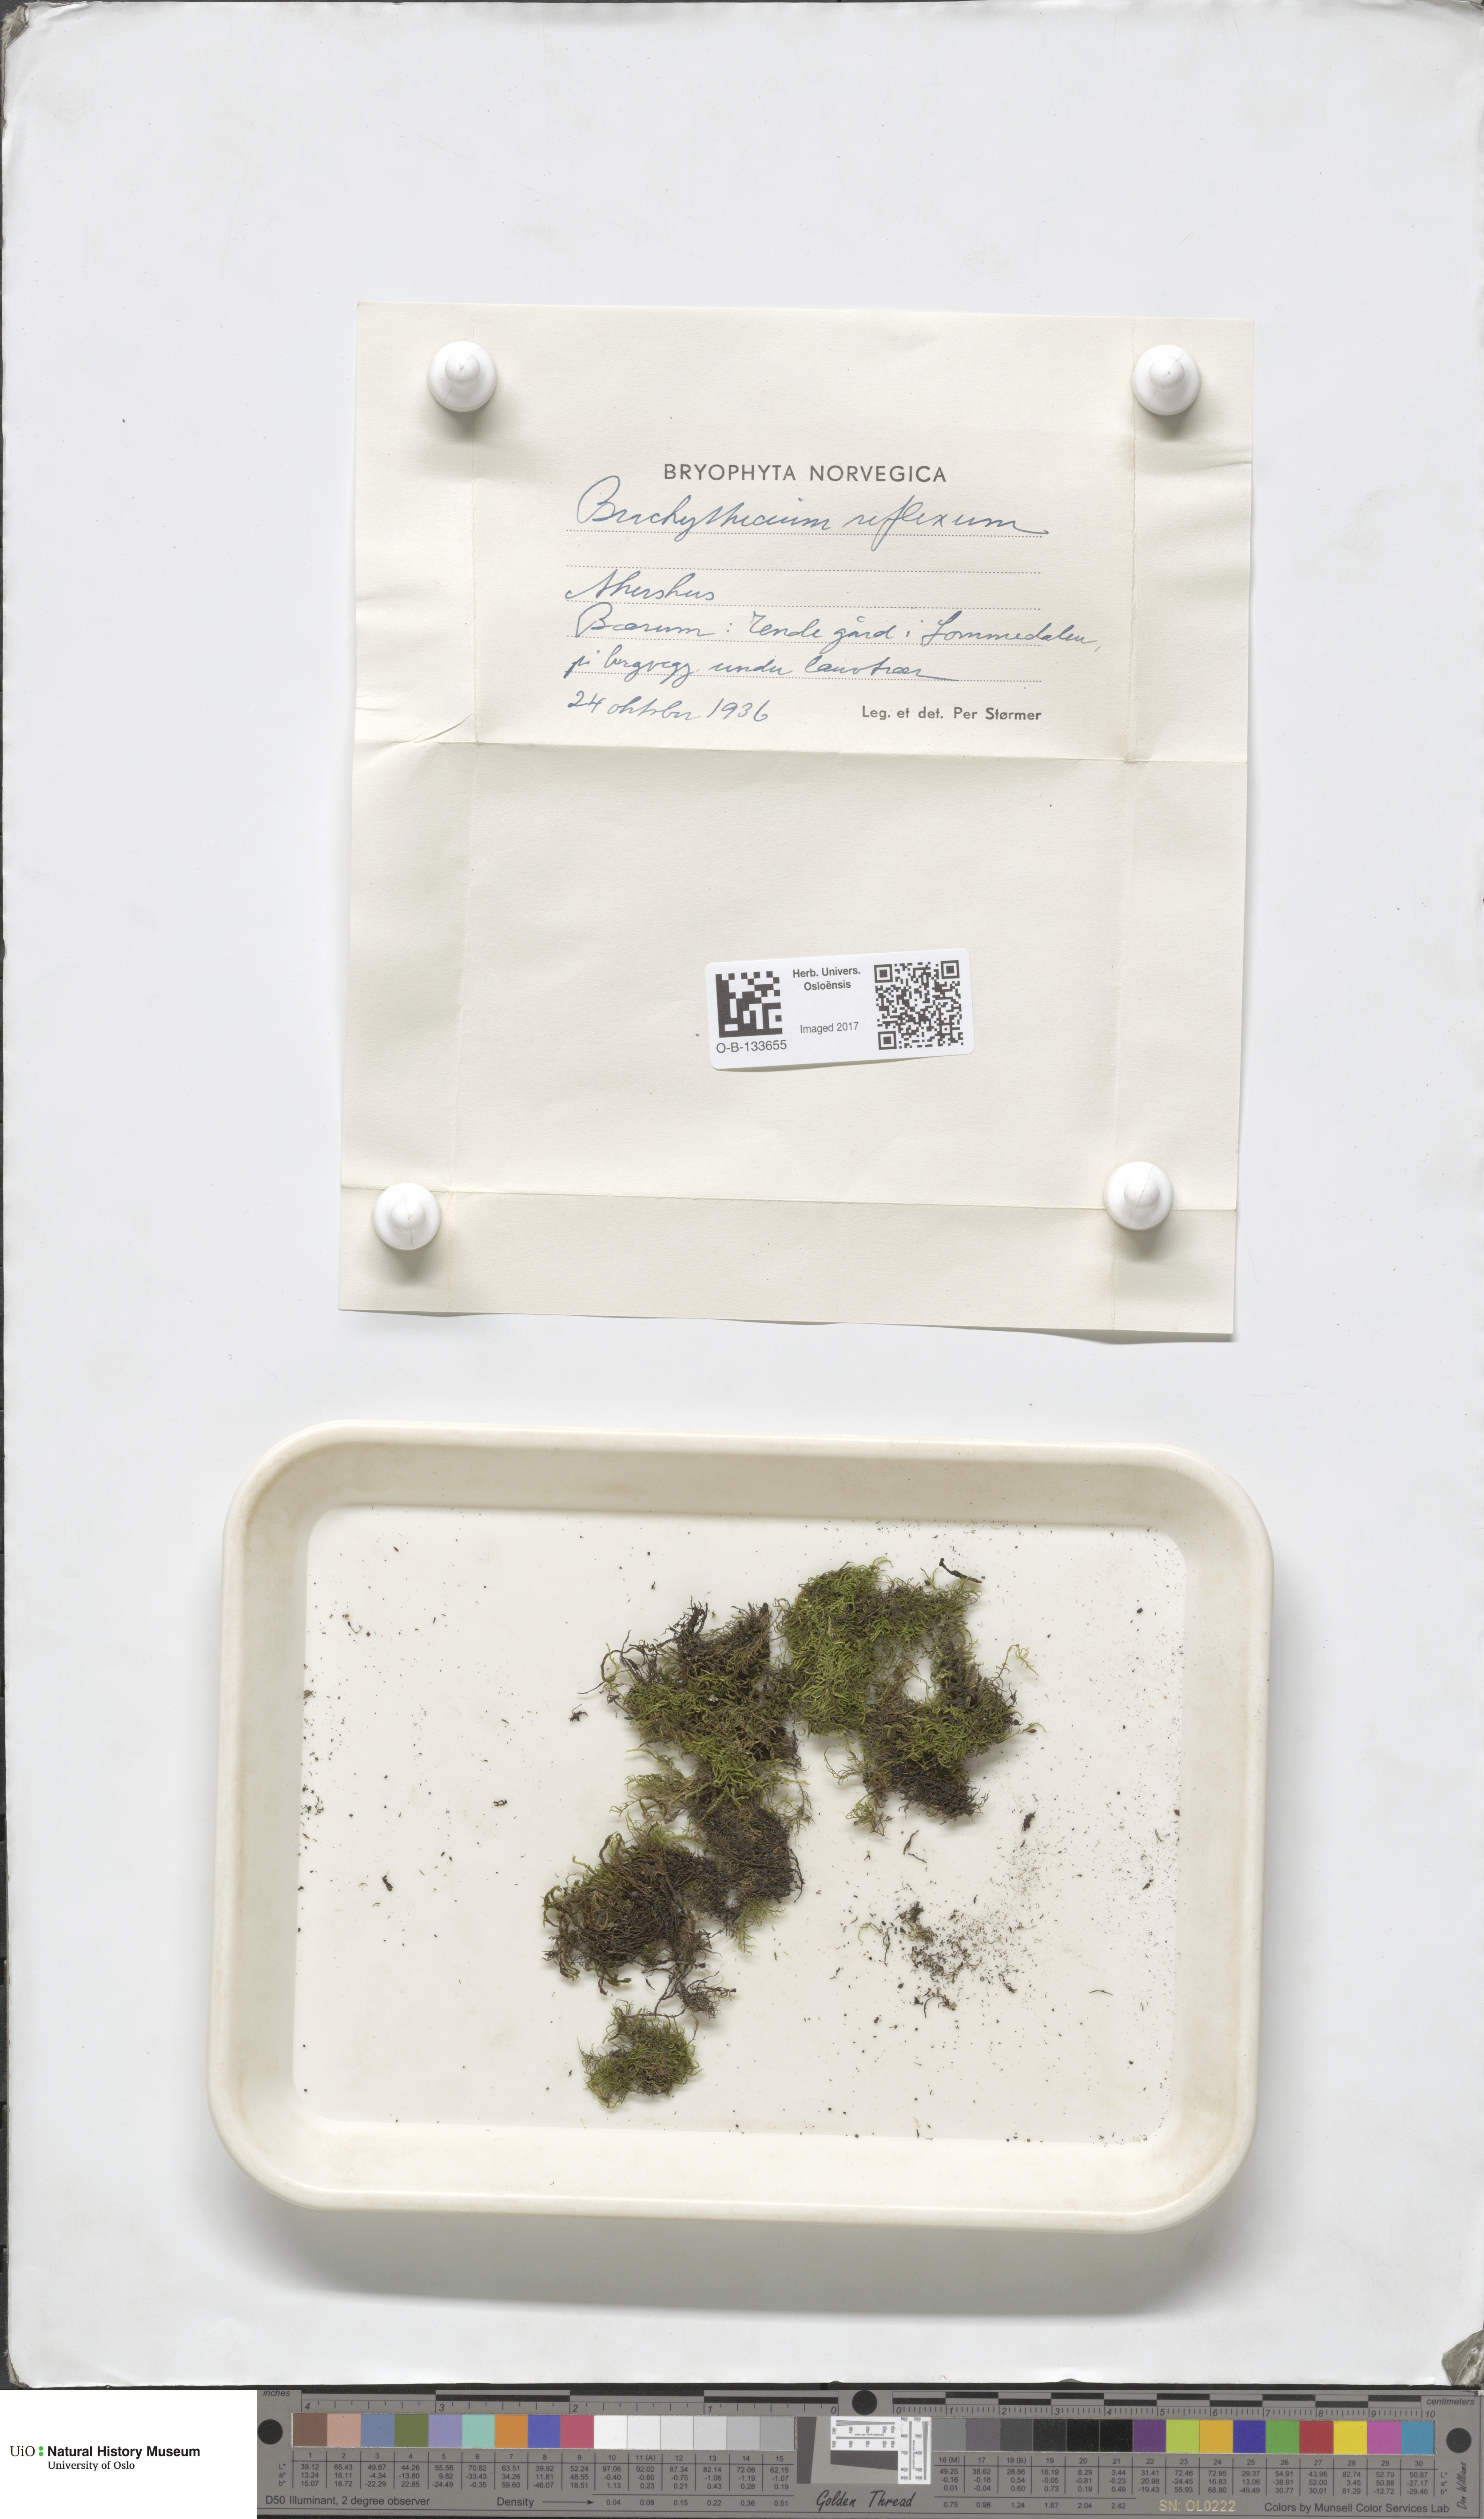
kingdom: Plantae
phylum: Bryophyta
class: Bryopsida
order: Hypnales
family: Brachytheciaceae
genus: Sciuro-hypnum
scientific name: Sciuro-hypnum reflexum
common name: Reflexed feather-moss
